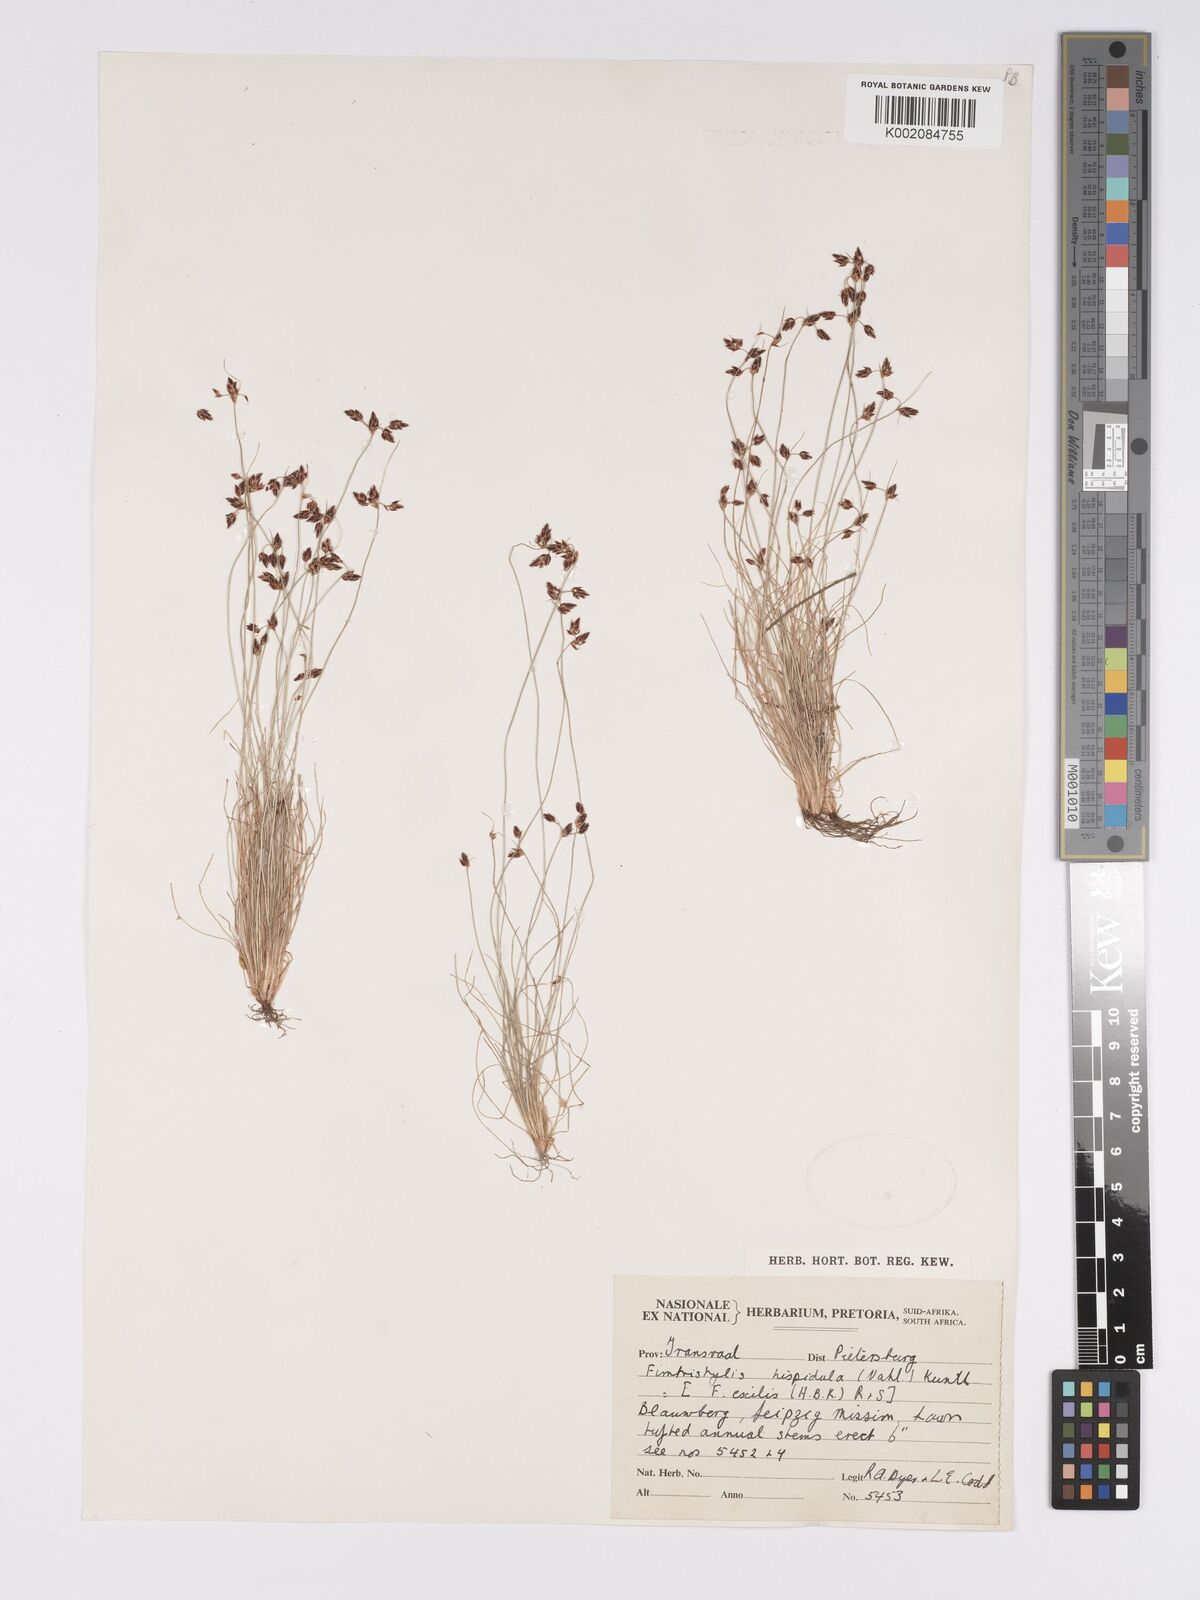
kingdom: Plantae
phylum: Tracheophyta
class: Liliopsida
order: Poales
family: Cyperaceae
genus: Bulbostylis
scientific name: Bulbostylis
